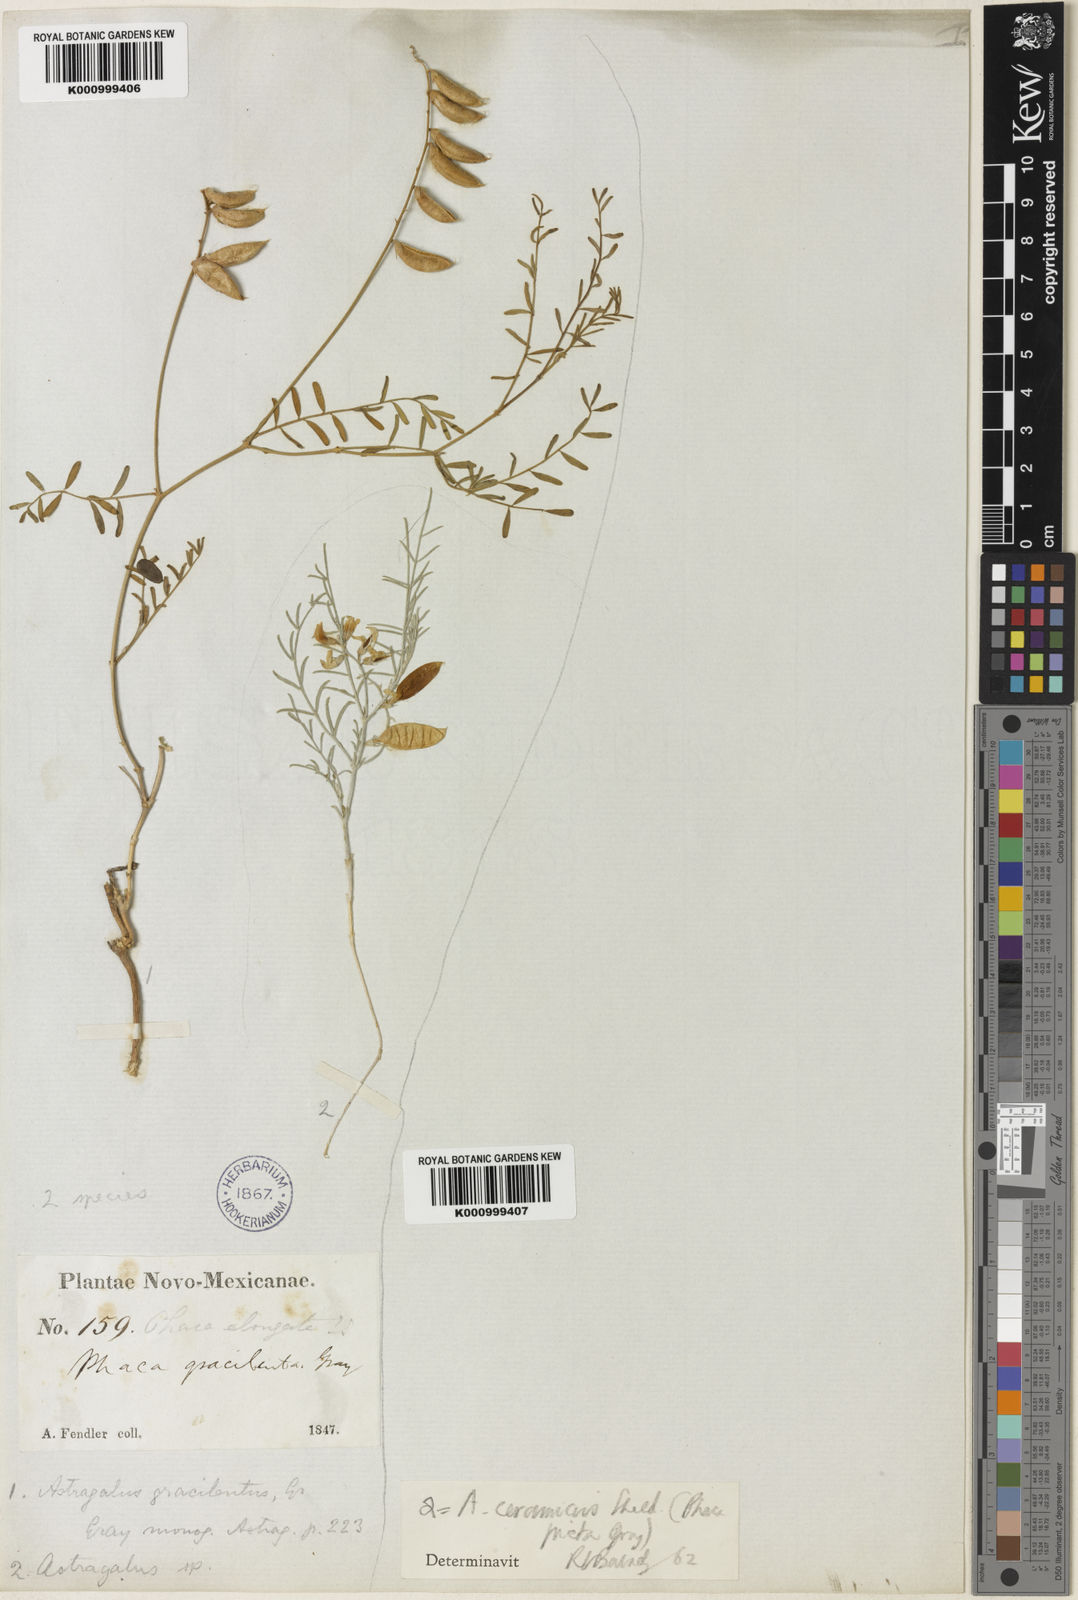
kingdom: Plantae
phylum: Tracheophyta
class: Magnoliopsida
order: Fabales
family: Fabaceae
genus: Astragalus
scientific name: Astragalus flexuosus
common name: Pliant milk-vetch
